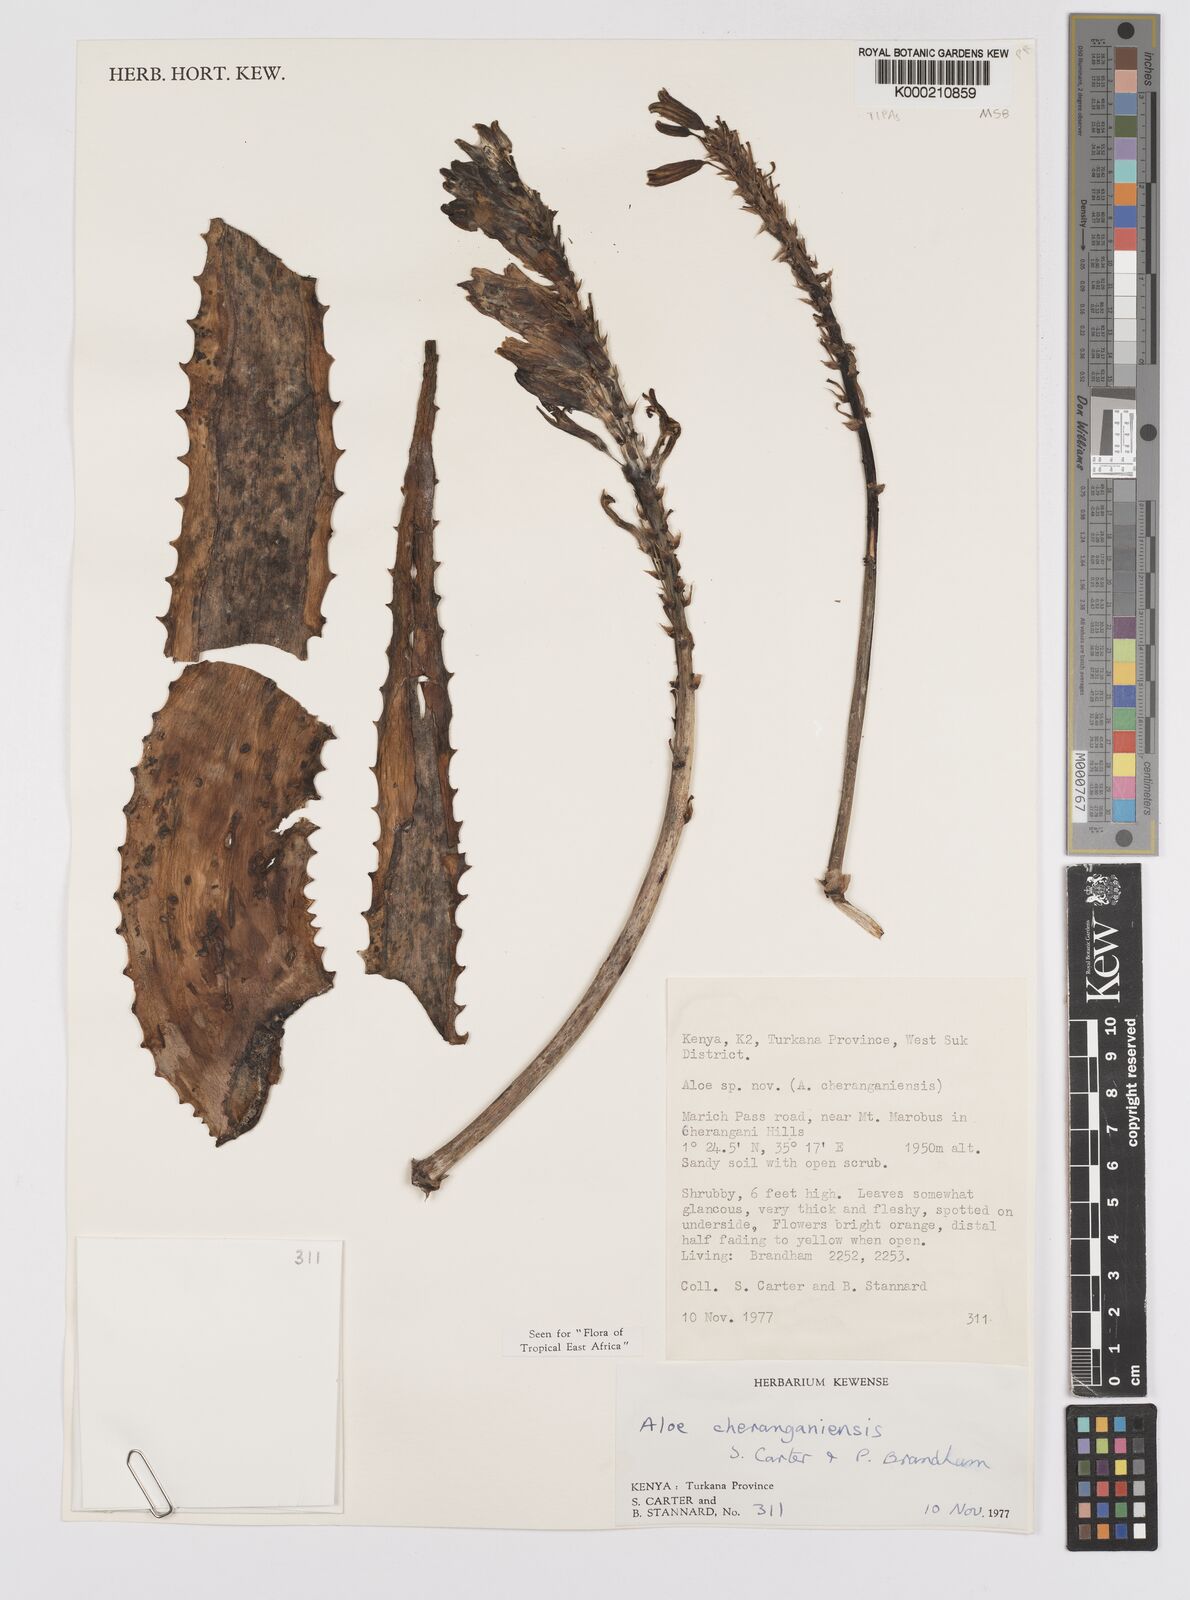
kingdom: Plantae
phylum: Tracheophyta
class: Liliopsida
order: Asparagales
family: Asphodelaceae
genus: Aloe
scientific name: Aloe cheranganiensis
